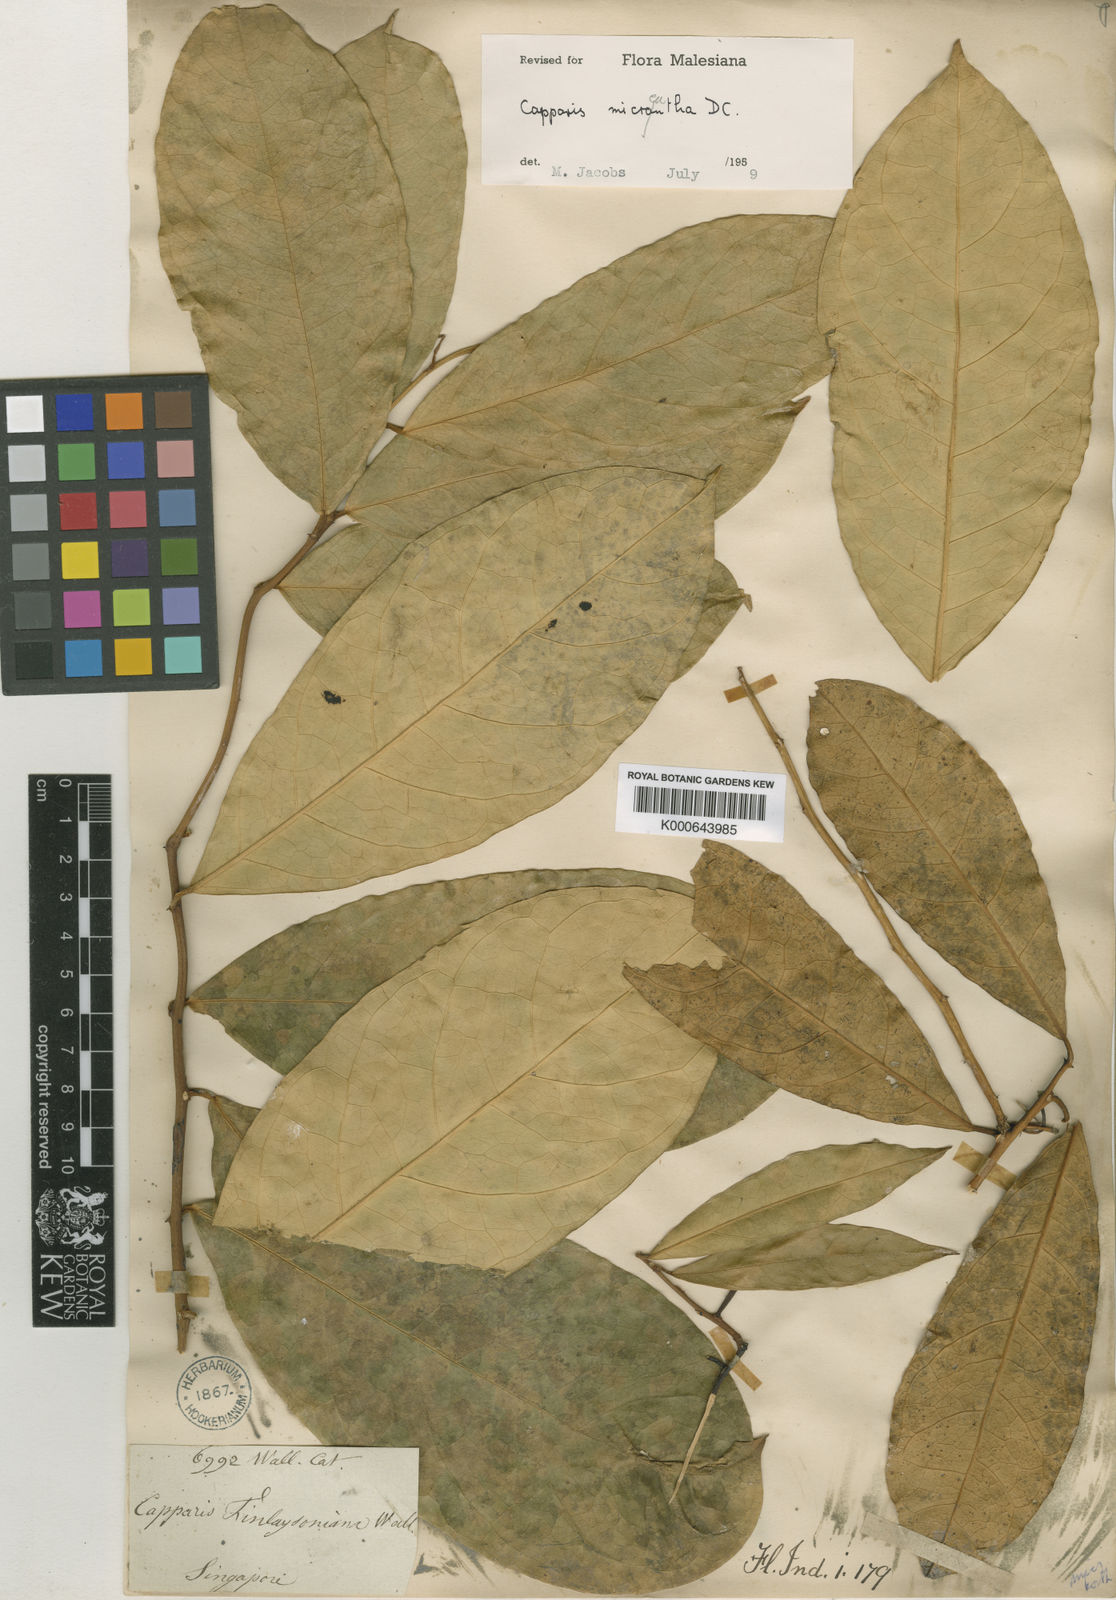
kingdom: Plantae
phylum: Tracheophyta
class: Magnoliopsida
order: Brassicales
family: Capparaceae
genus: Capparis
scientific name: Capparis micracantha
